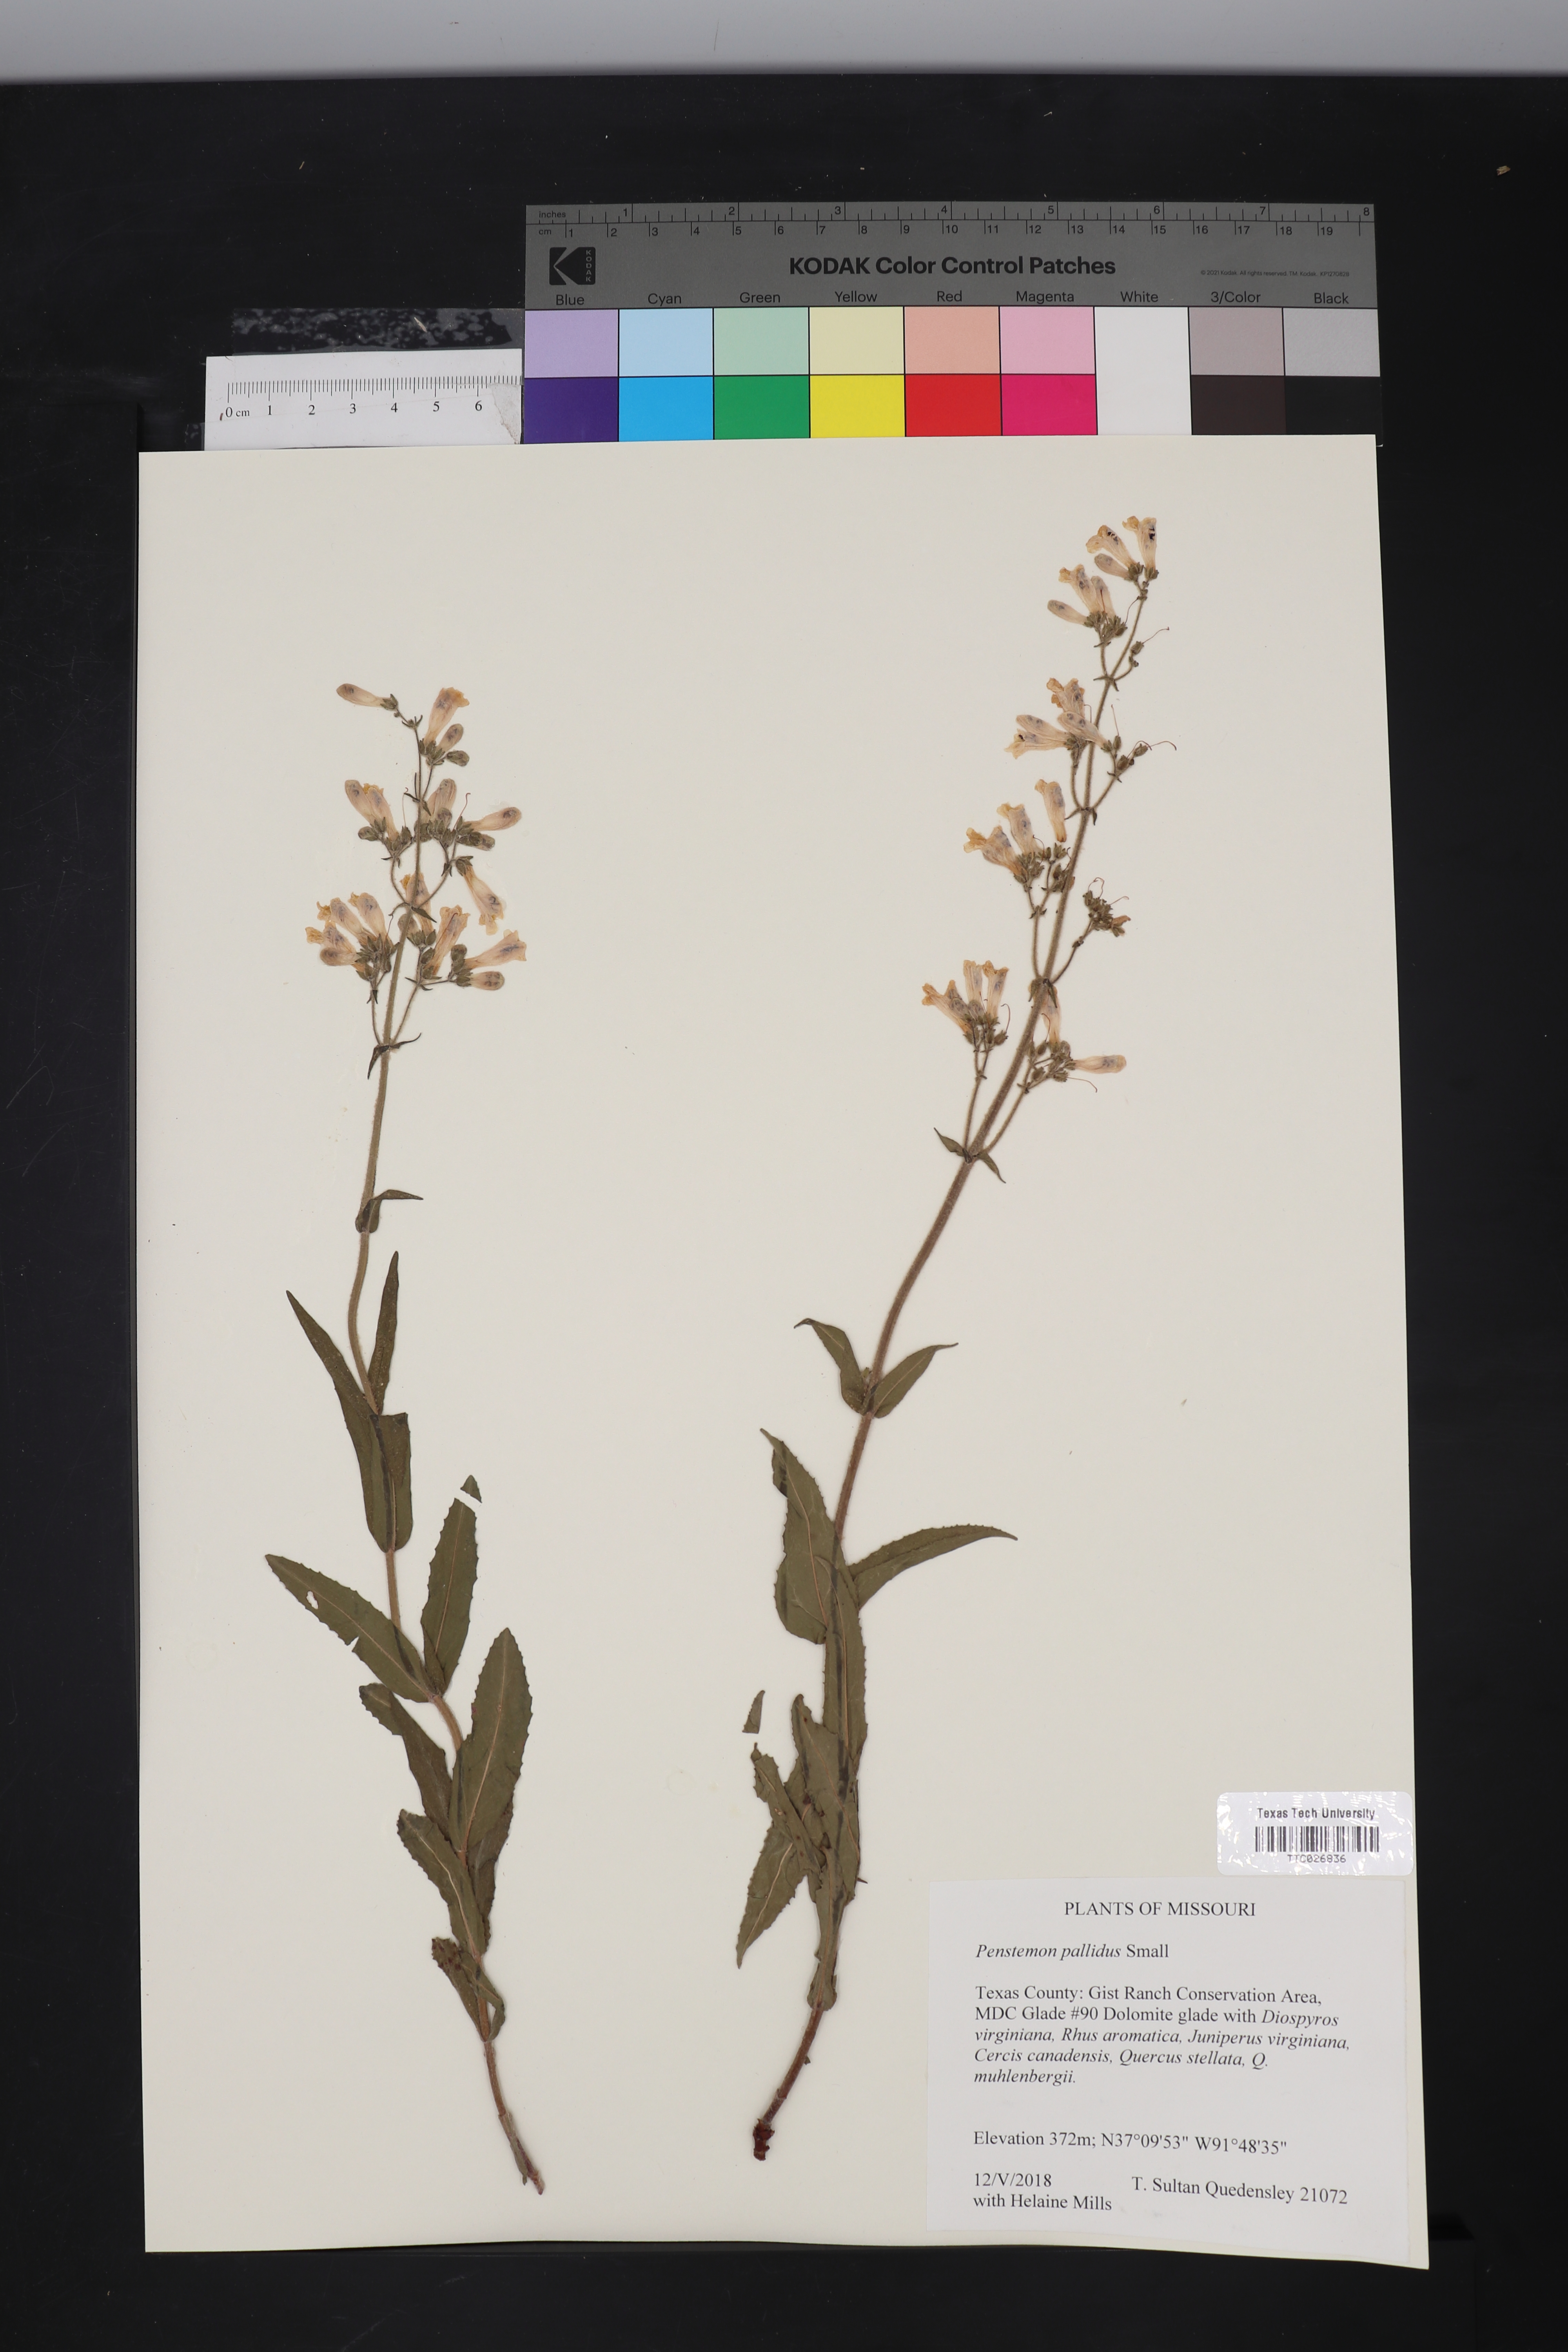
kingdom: Plantae
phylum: Tracheophyta
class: Magnoliopsida
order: Lamiales
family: Plantaginaceae
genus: Penstemon
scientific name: Penstemon pallidus
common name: Pale beardtongue
